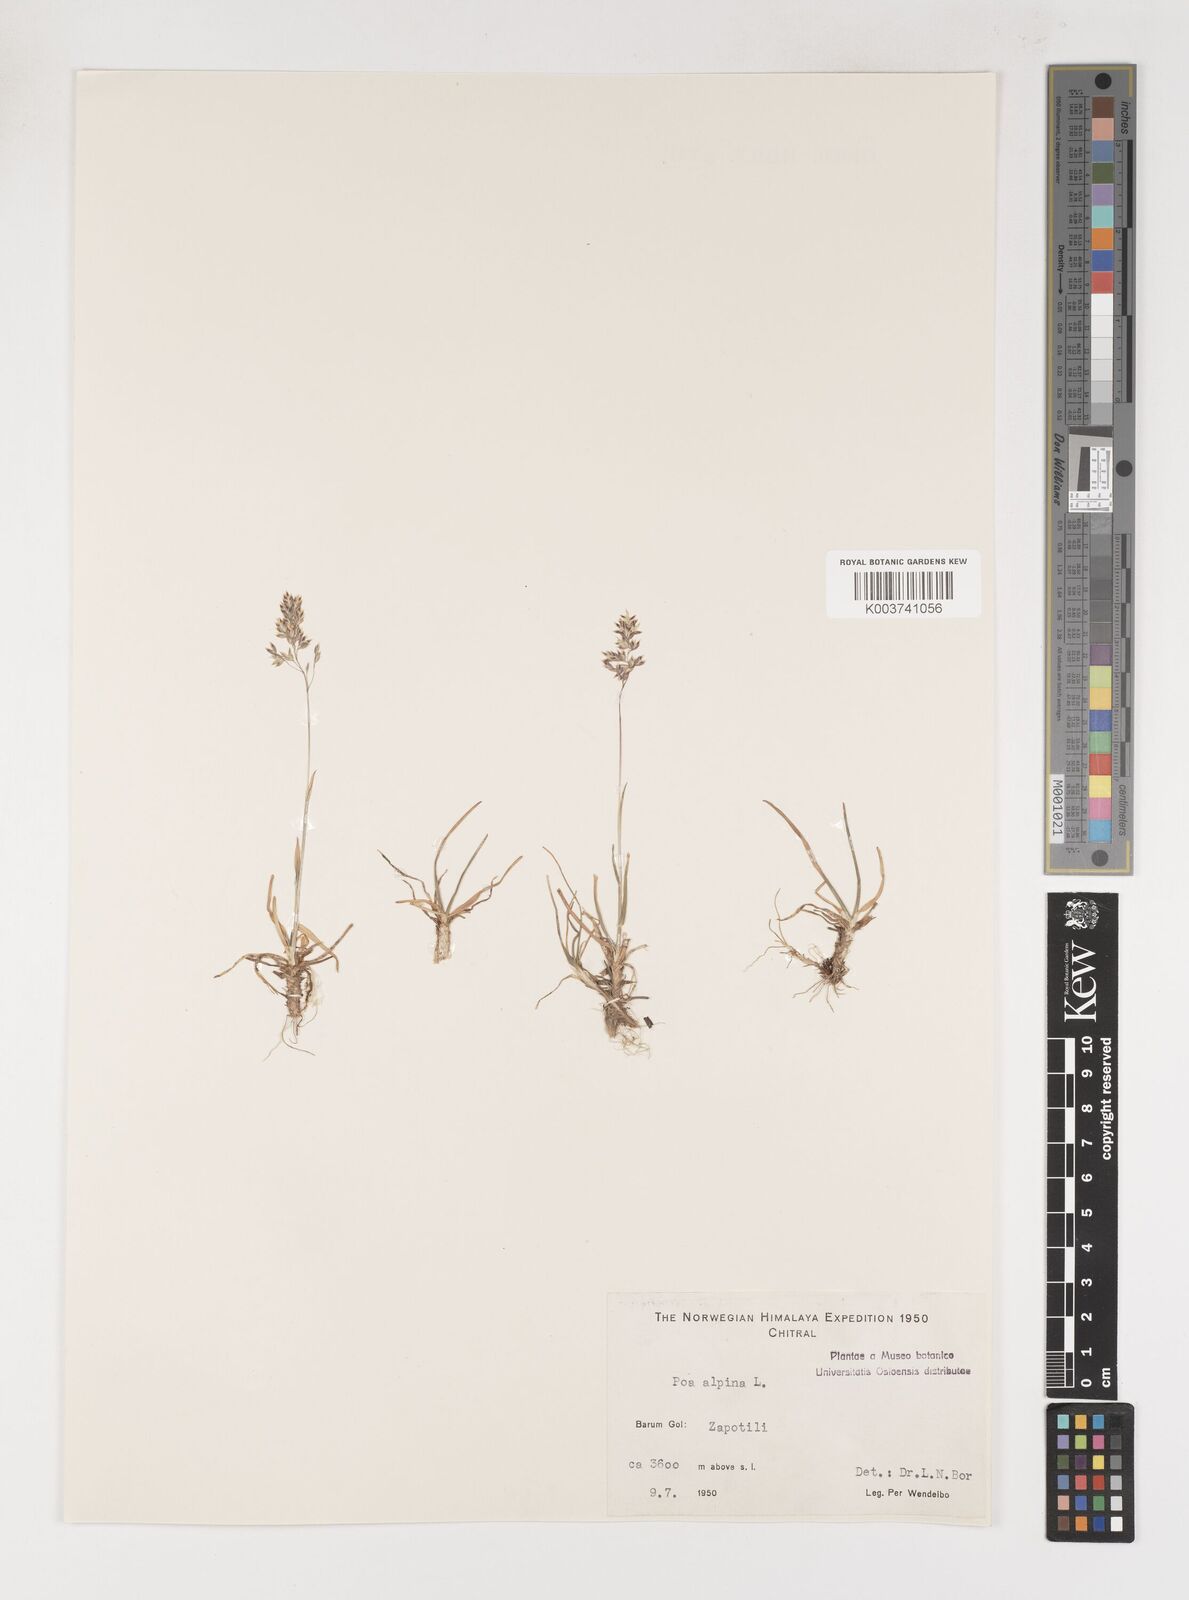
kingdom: Plantae
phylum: Tracheophyta
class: Liliopsida
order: Poales
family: Poaceae
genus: Poa
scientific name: Poa alpina
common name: Alpine bluegrass
